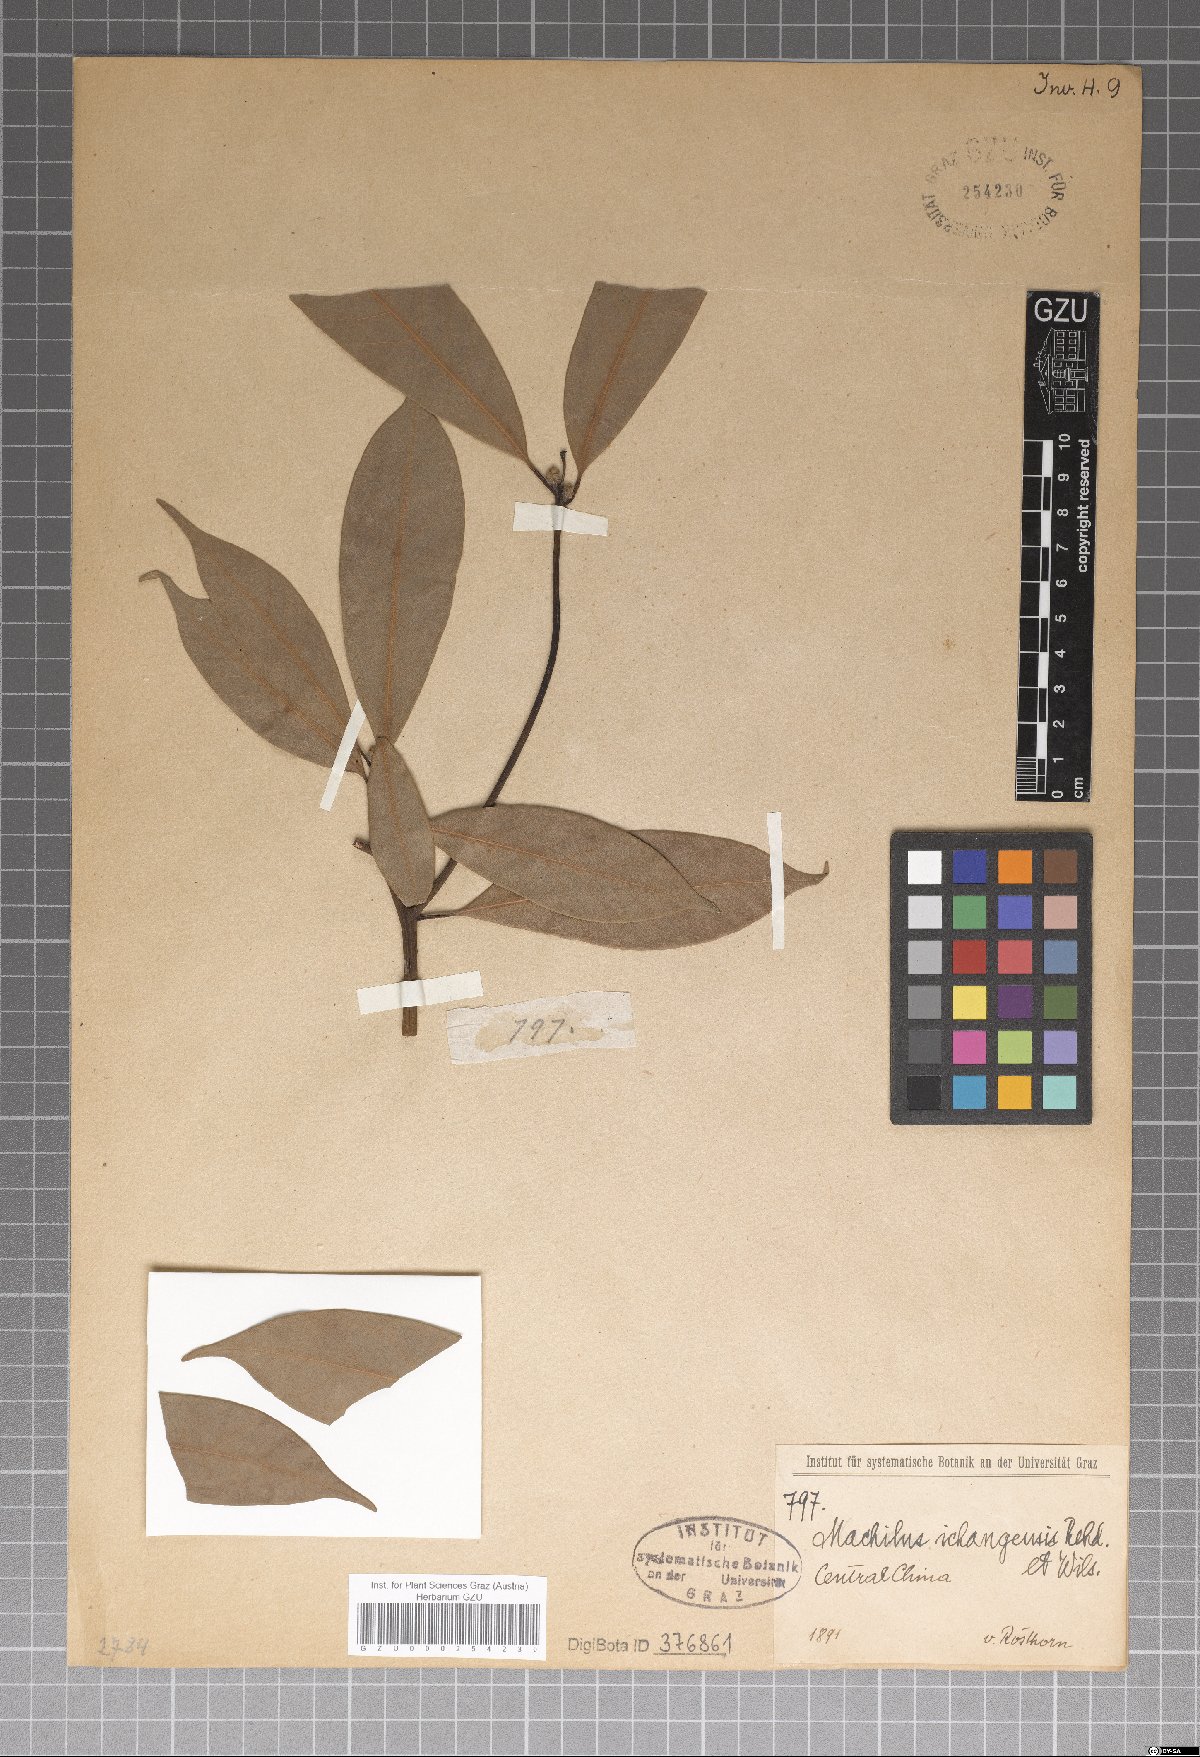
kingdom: Plantae
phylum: Tracheophyta
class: Magnoliopsida
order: Laurales
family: Lauraceae
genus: Machilus
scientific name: Machilus ichangensis
